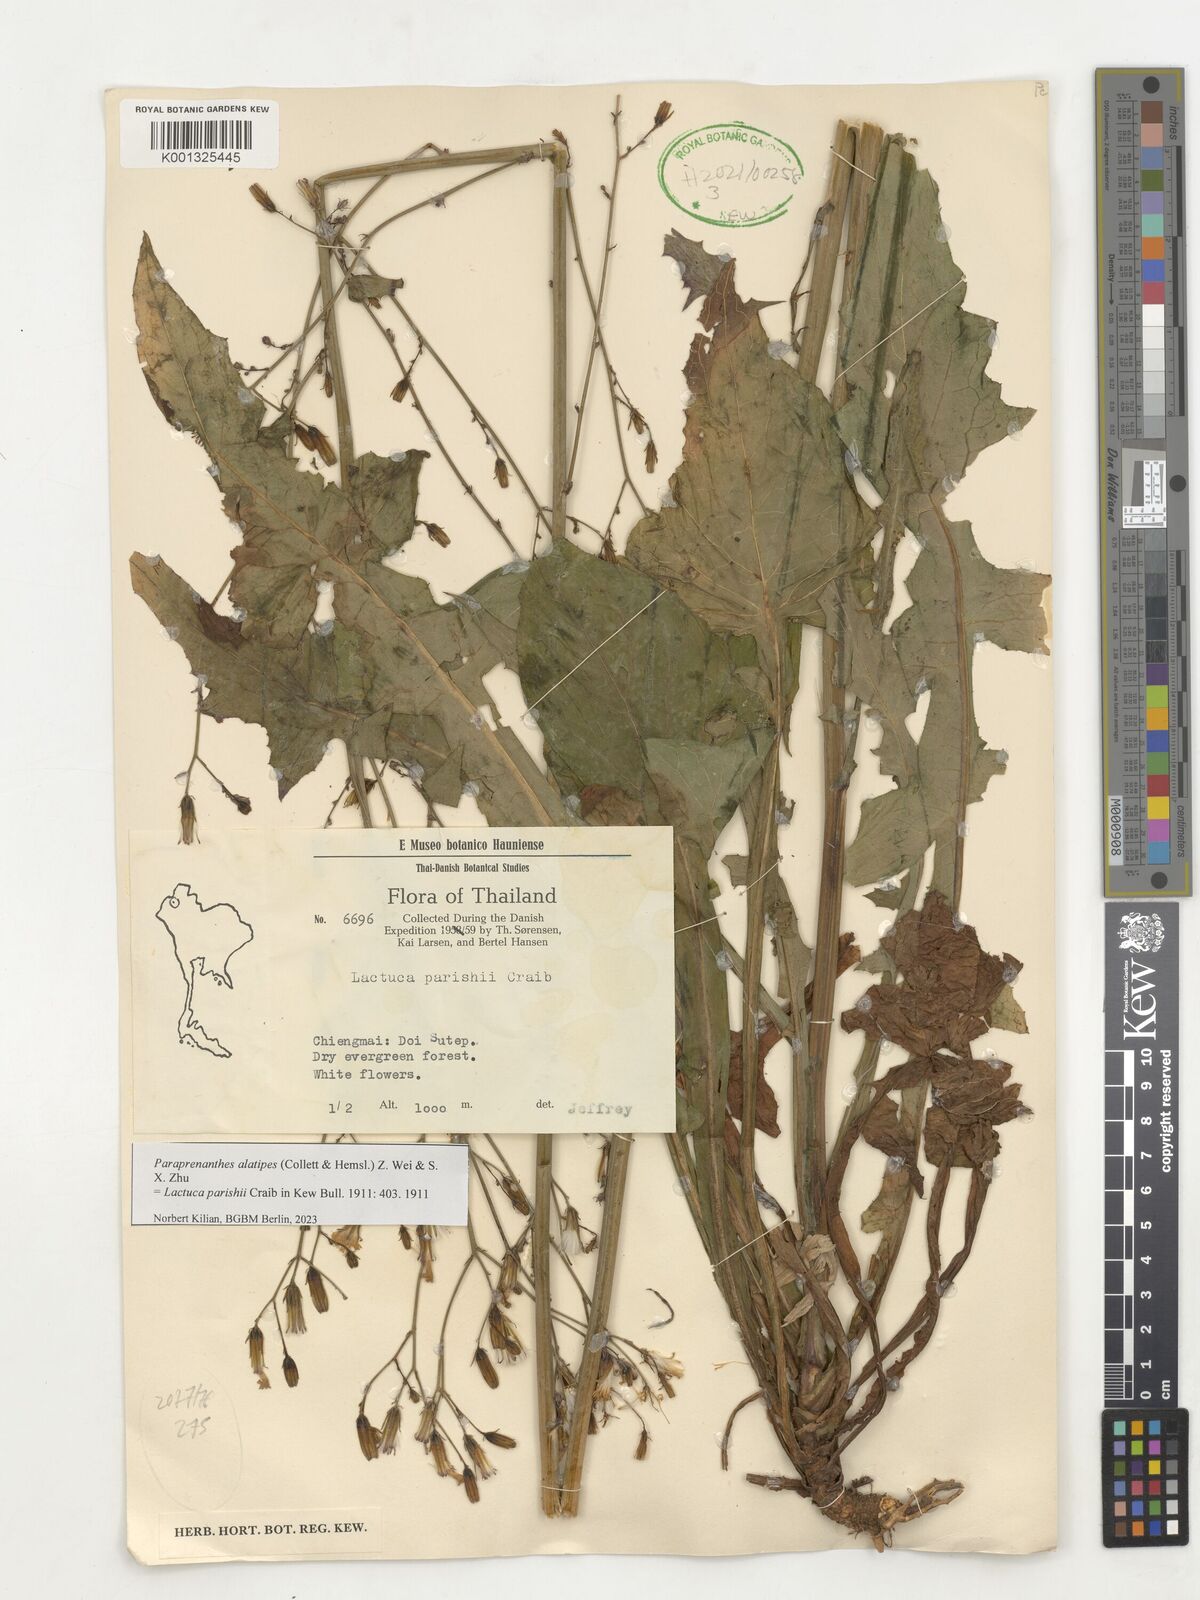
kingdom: Plantae
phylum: Tracheophyta
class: Magnoliopsida
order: Asterales
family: Asteraceae
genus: Paraprenanthes
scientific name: Paraprenanthes umbrosa
